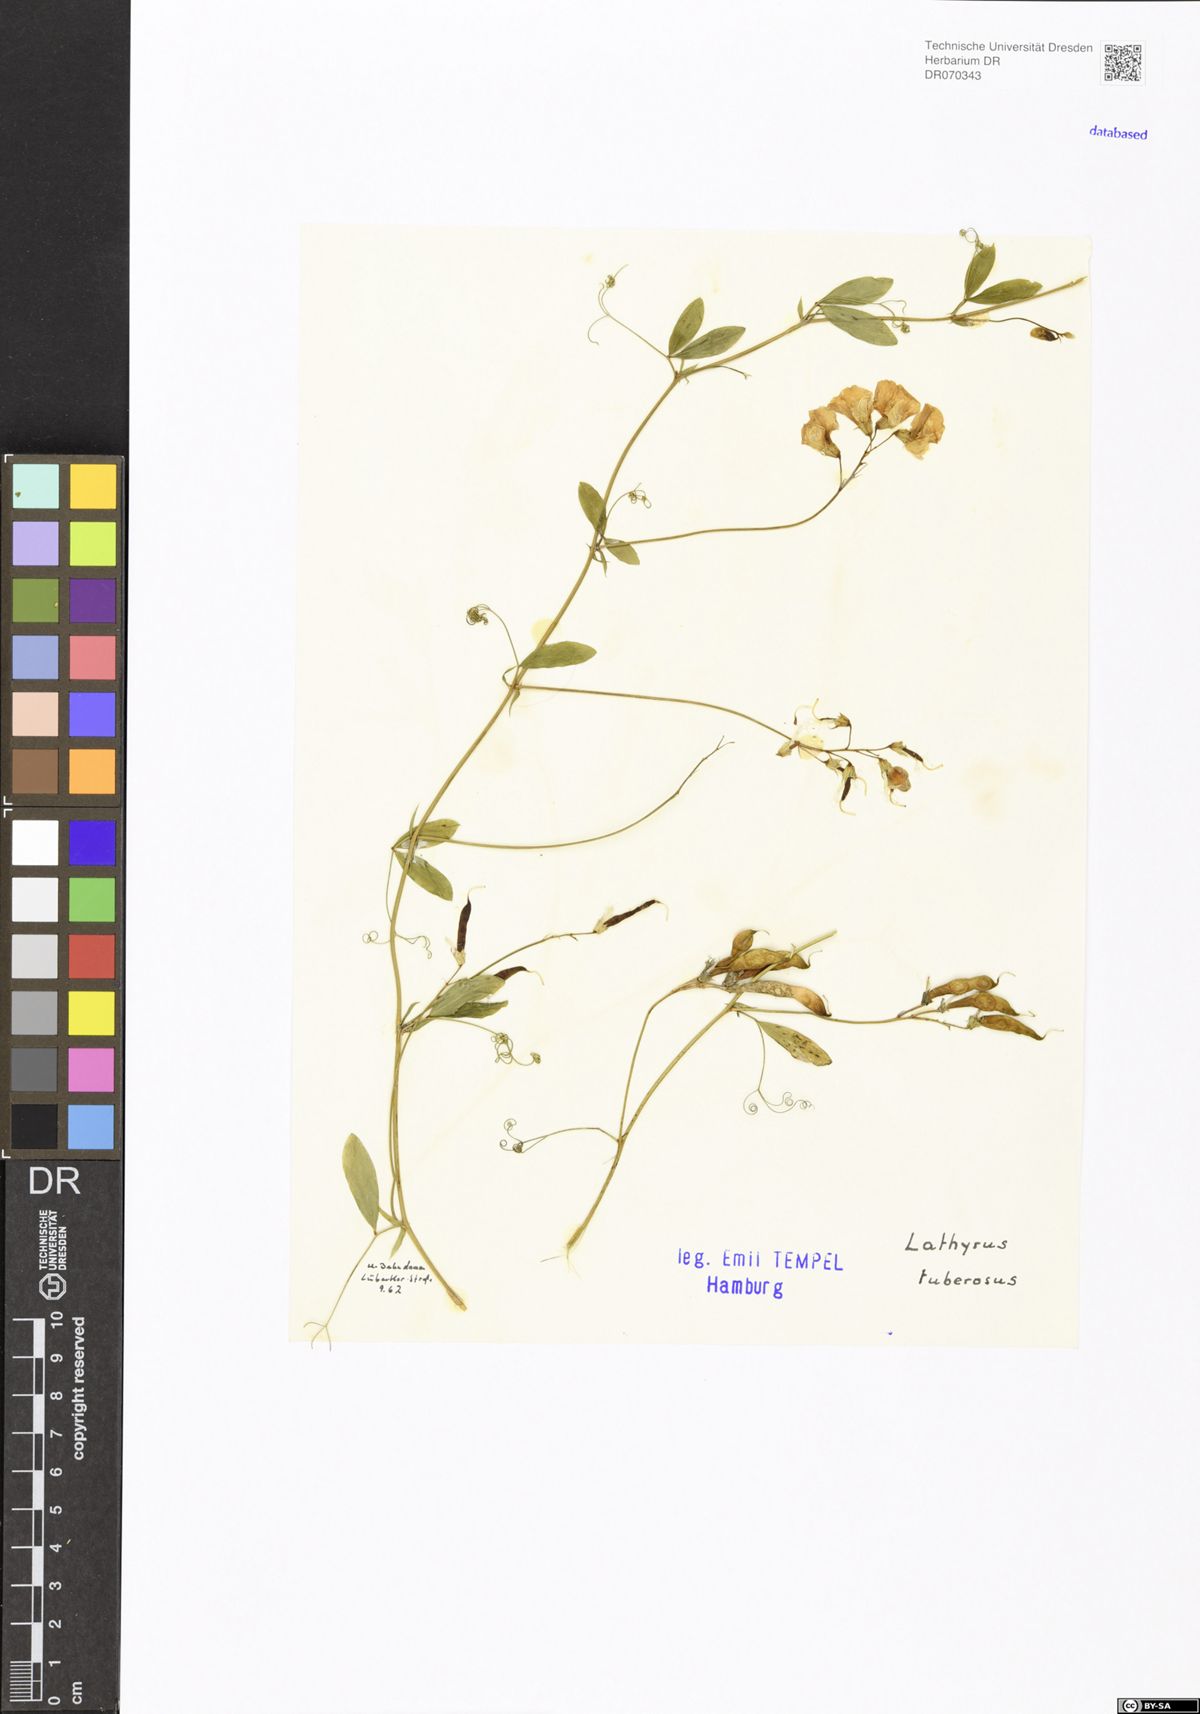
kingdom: Plantae
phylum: Tracheophyta
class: Magnoliopsida
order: Fabales
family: Fabaceae
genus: Lathyrus
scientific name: Lathyrus tuberosus
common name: Tuberous pea
